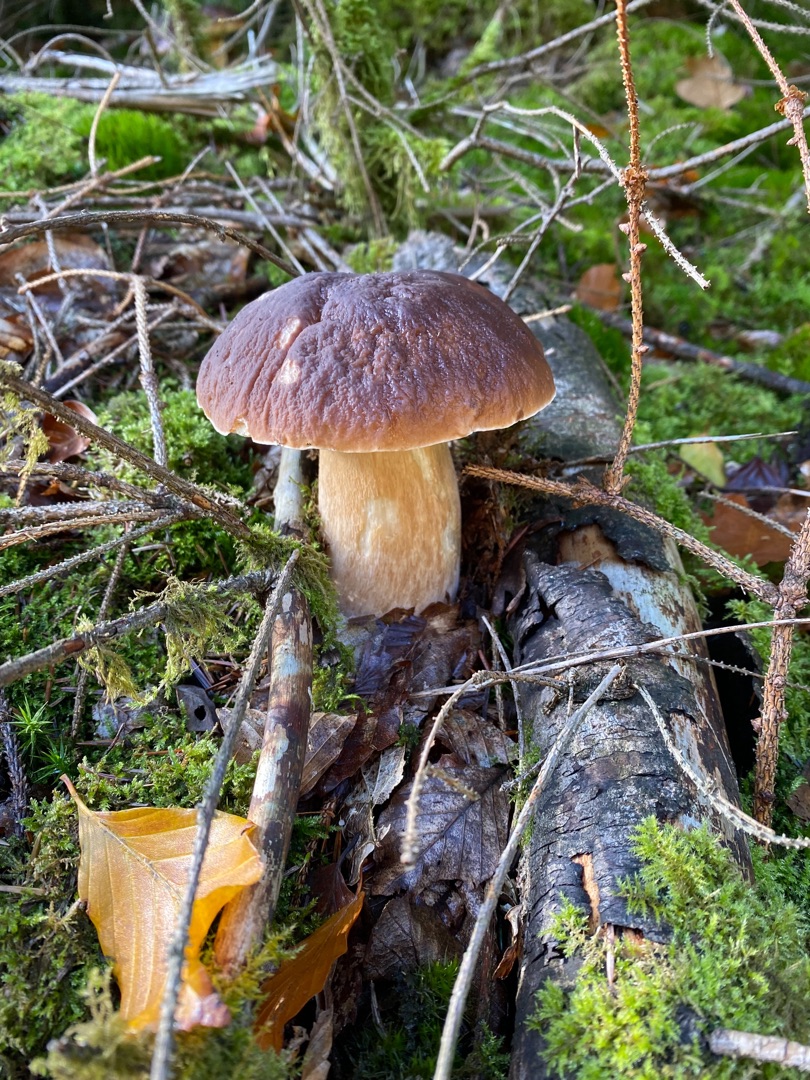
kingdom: Fungi
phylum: Basidiomycota
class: Agaricomycetes
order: Boletales
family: Boletaceae
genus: Boletus
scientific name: Boletus edulis
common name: Spiselig rørhat/karl johan
